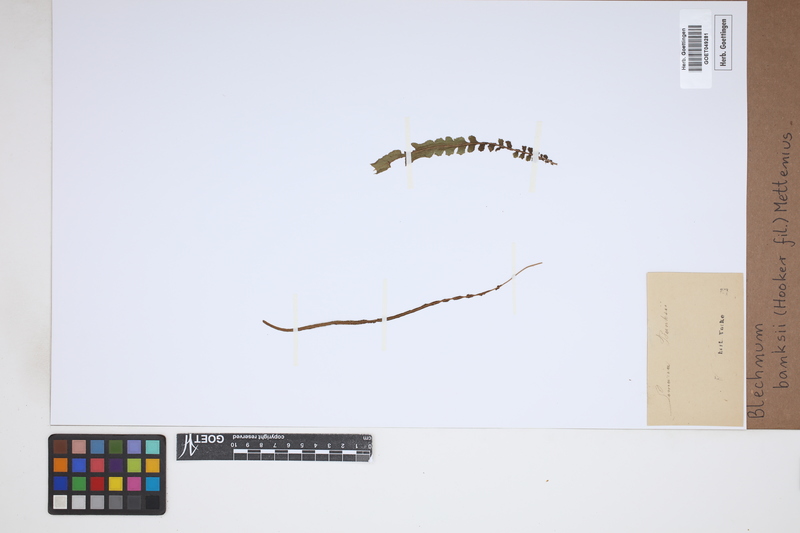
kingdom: Plantae
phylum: Tracheophyta
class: Polypodiopsida
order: Polypodiales
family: Blechnaceae
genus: Austroblechnum
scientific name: Austroblechnum banksii
